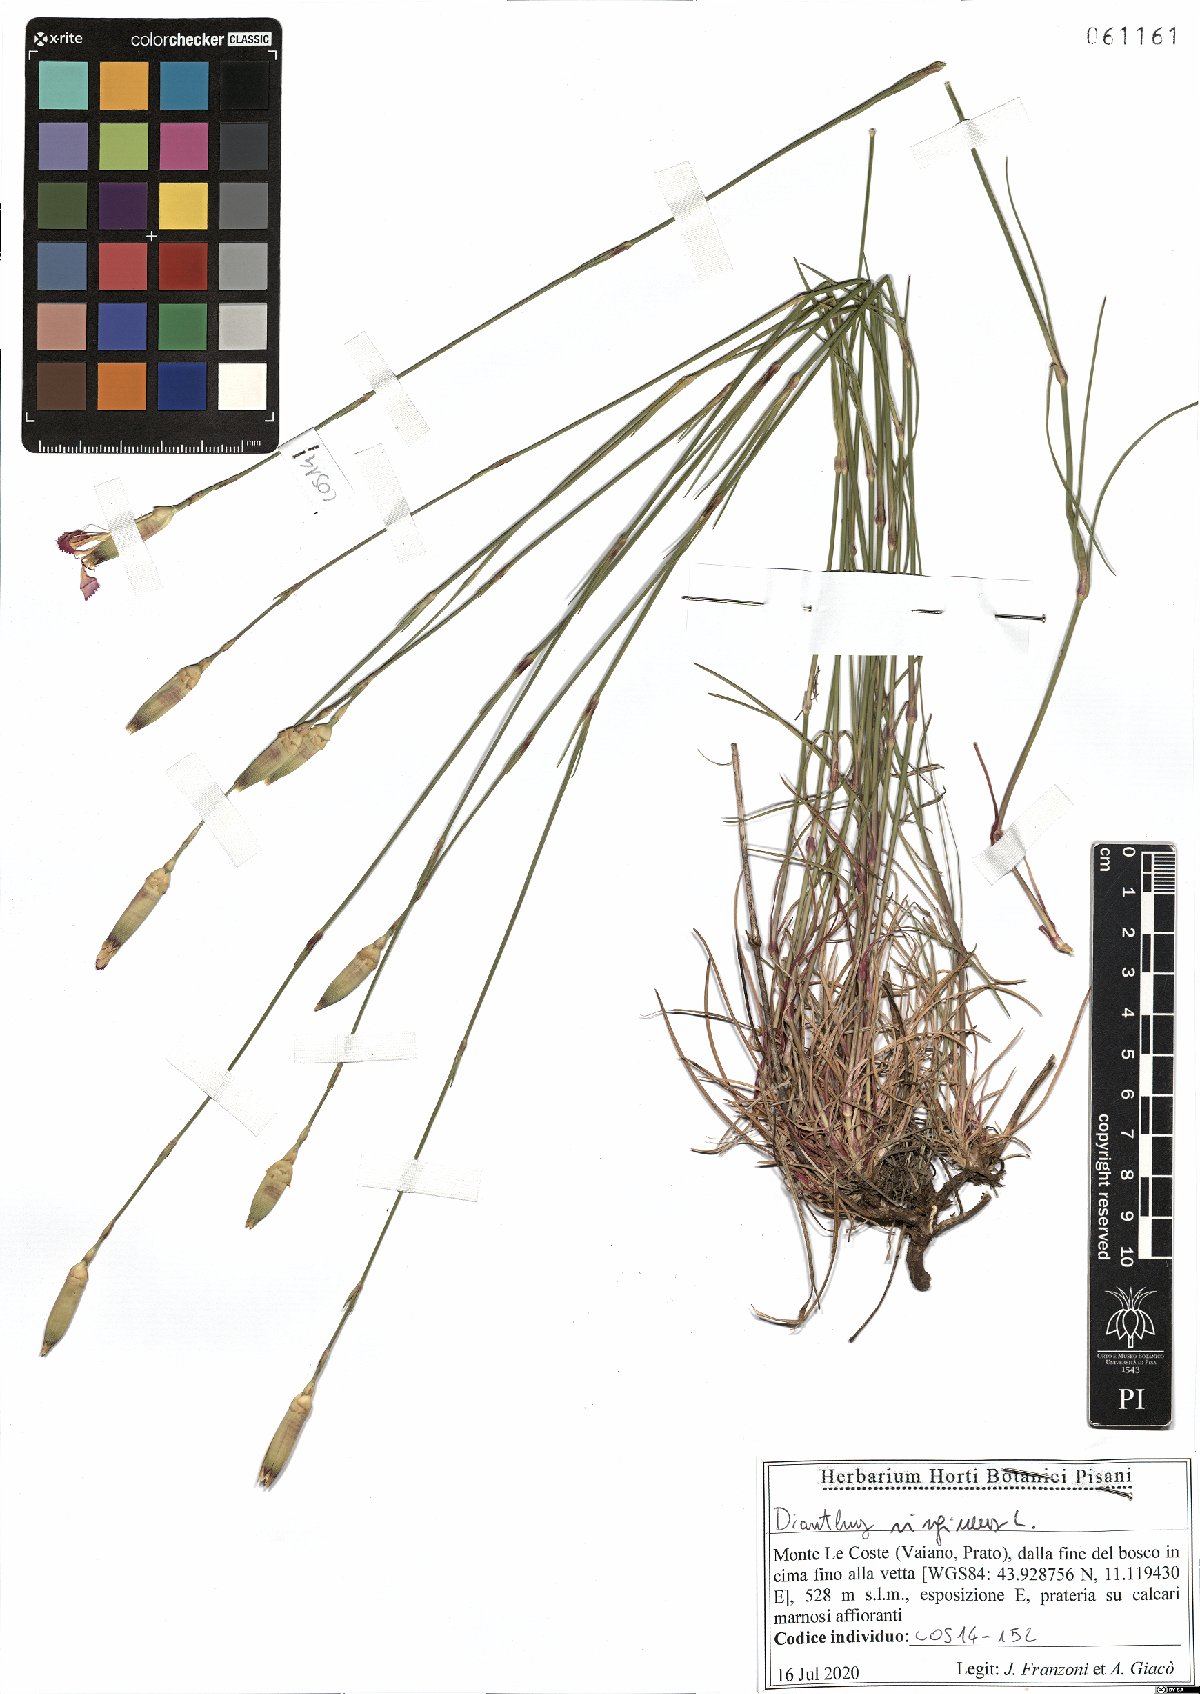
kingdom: Plantae
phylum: Tracheophyta
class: Magnoliopsida
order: Caryophyllales
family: Caryophyllaceae
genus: Dianthus
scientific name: Dianthus virgineus
